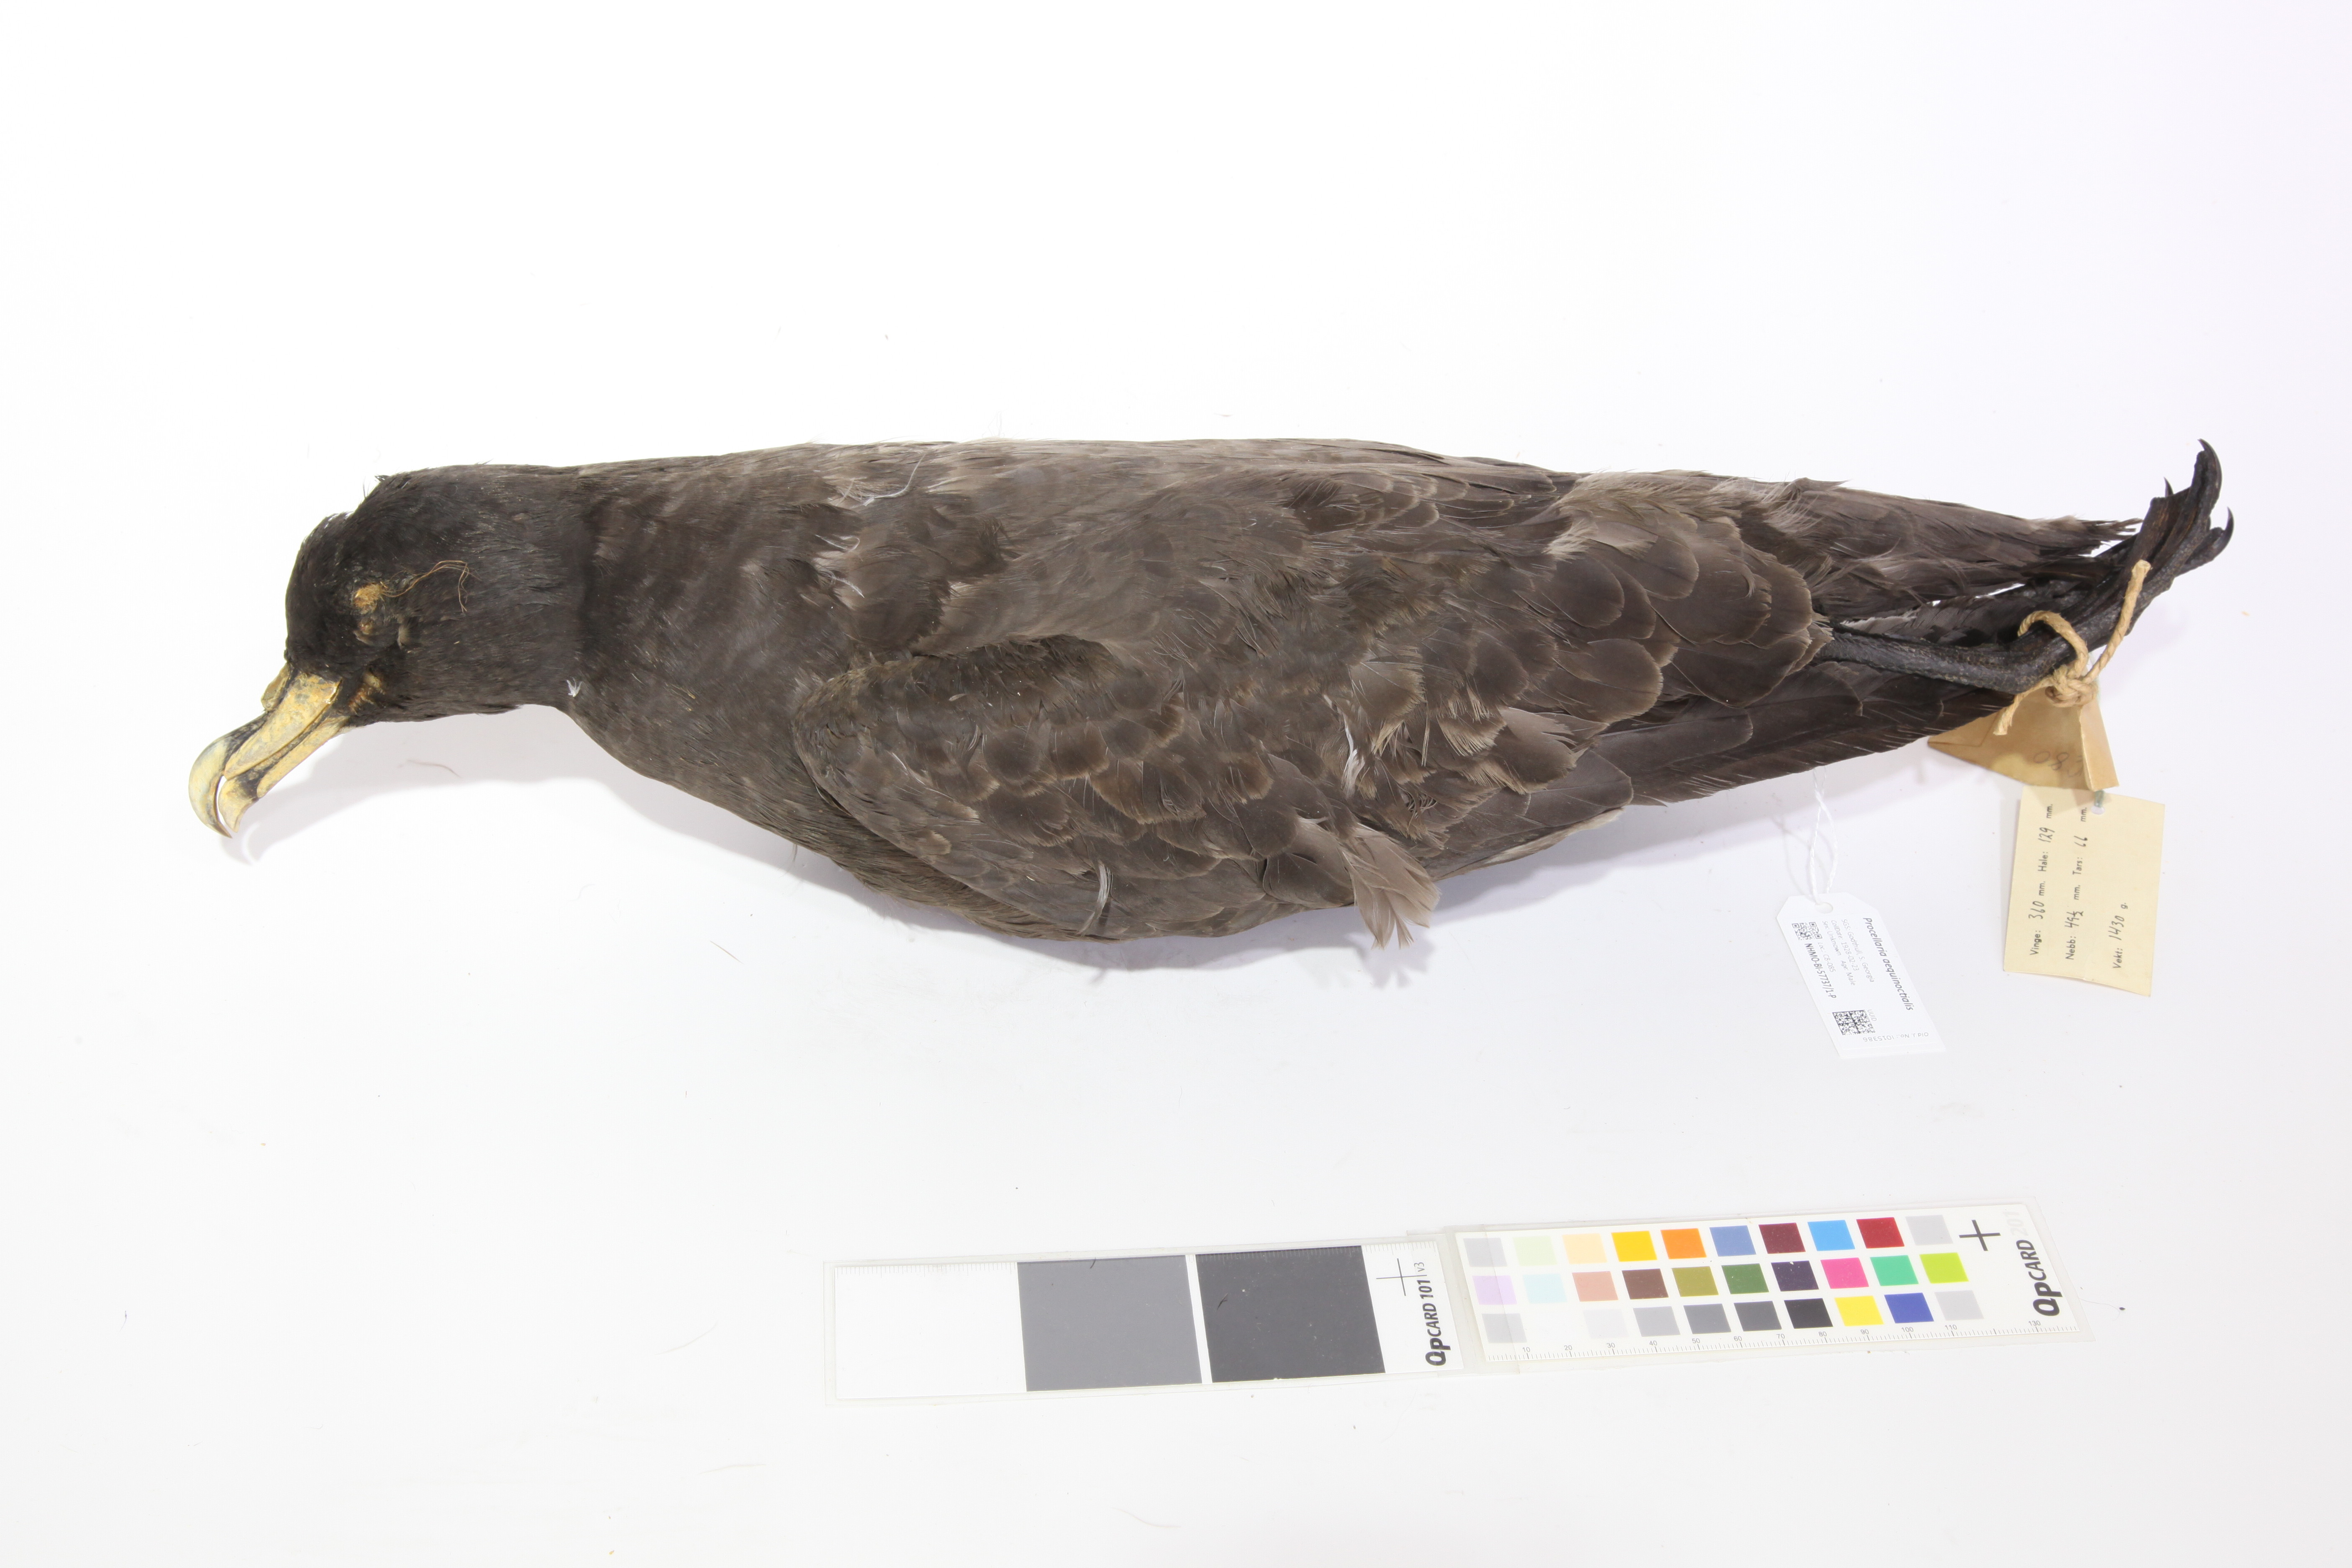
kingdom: Animalia
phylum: Chordata
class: Aves
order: Procellariiformes
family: Procellariidae
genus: Procellaria
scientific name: Procellaria aequinoctialis
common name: White-chinned petrel
